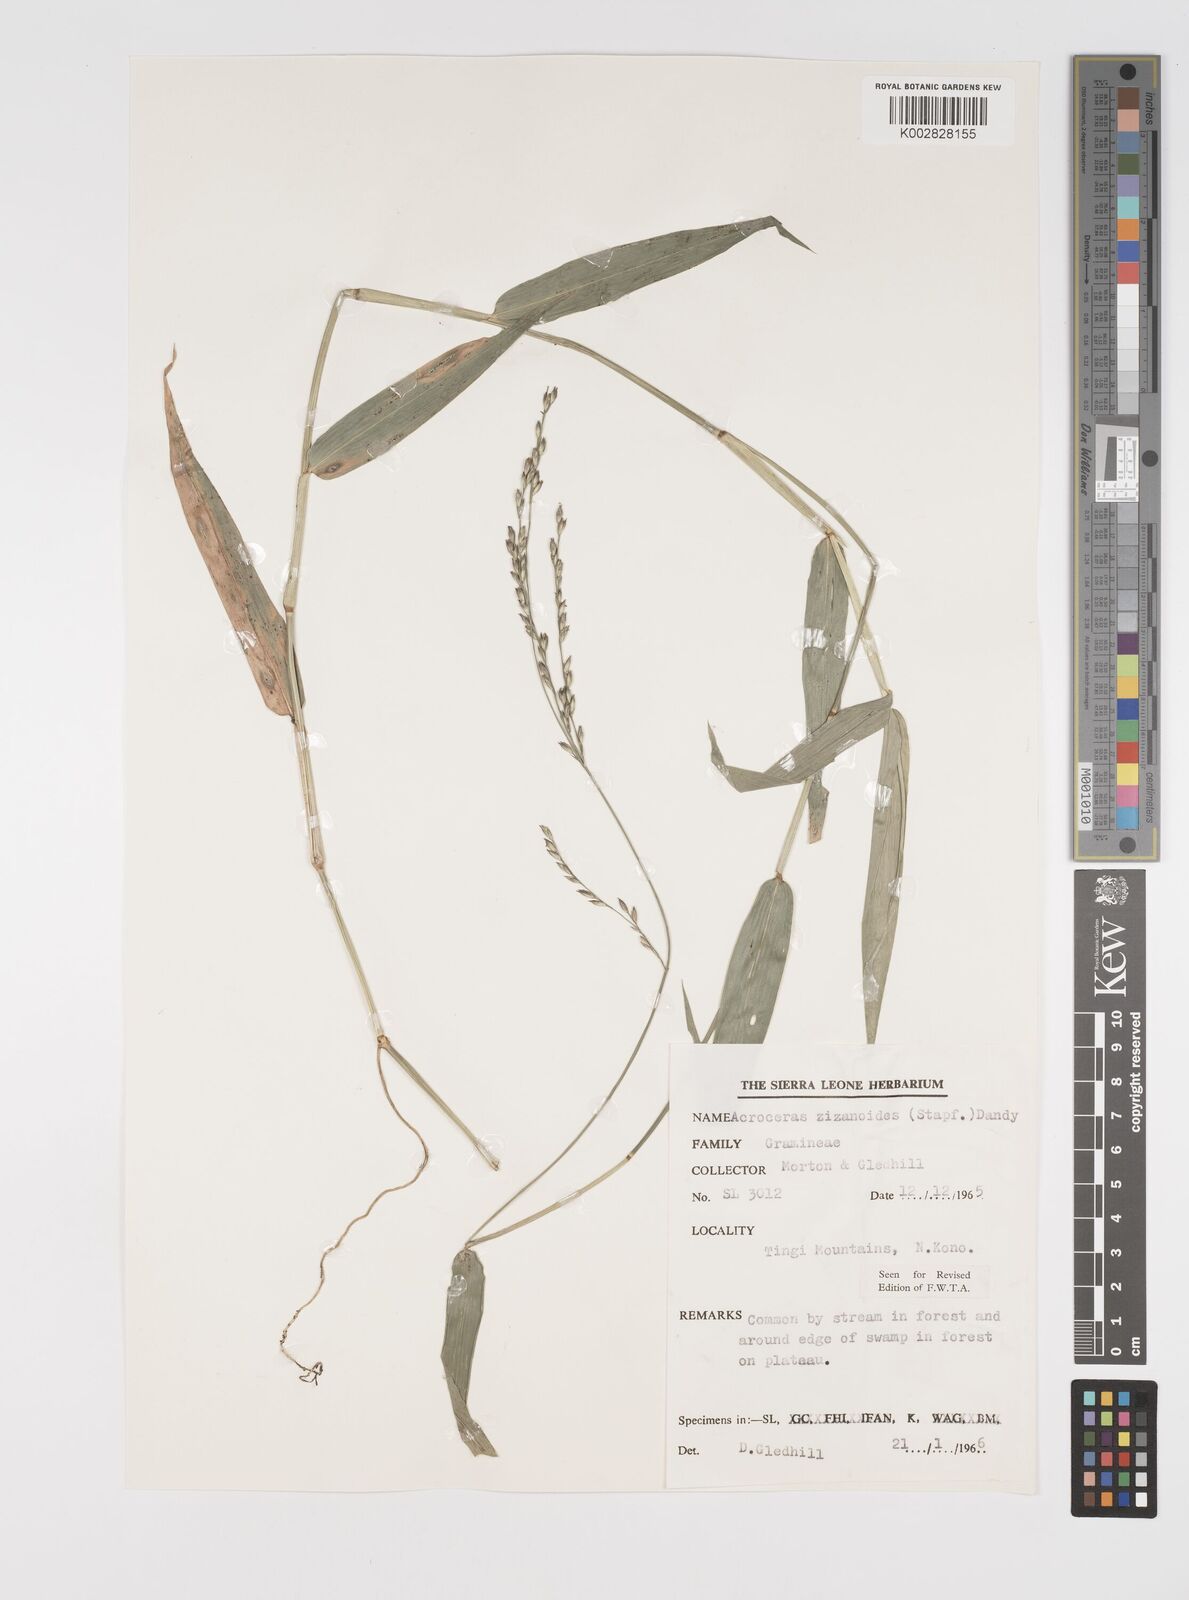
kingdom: Plantae
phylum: Tracheophyta
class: Liliopsida
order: Poales
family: Poaceae
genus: Acroceras
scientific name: Acroceras zizanioides
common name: Oat grass
